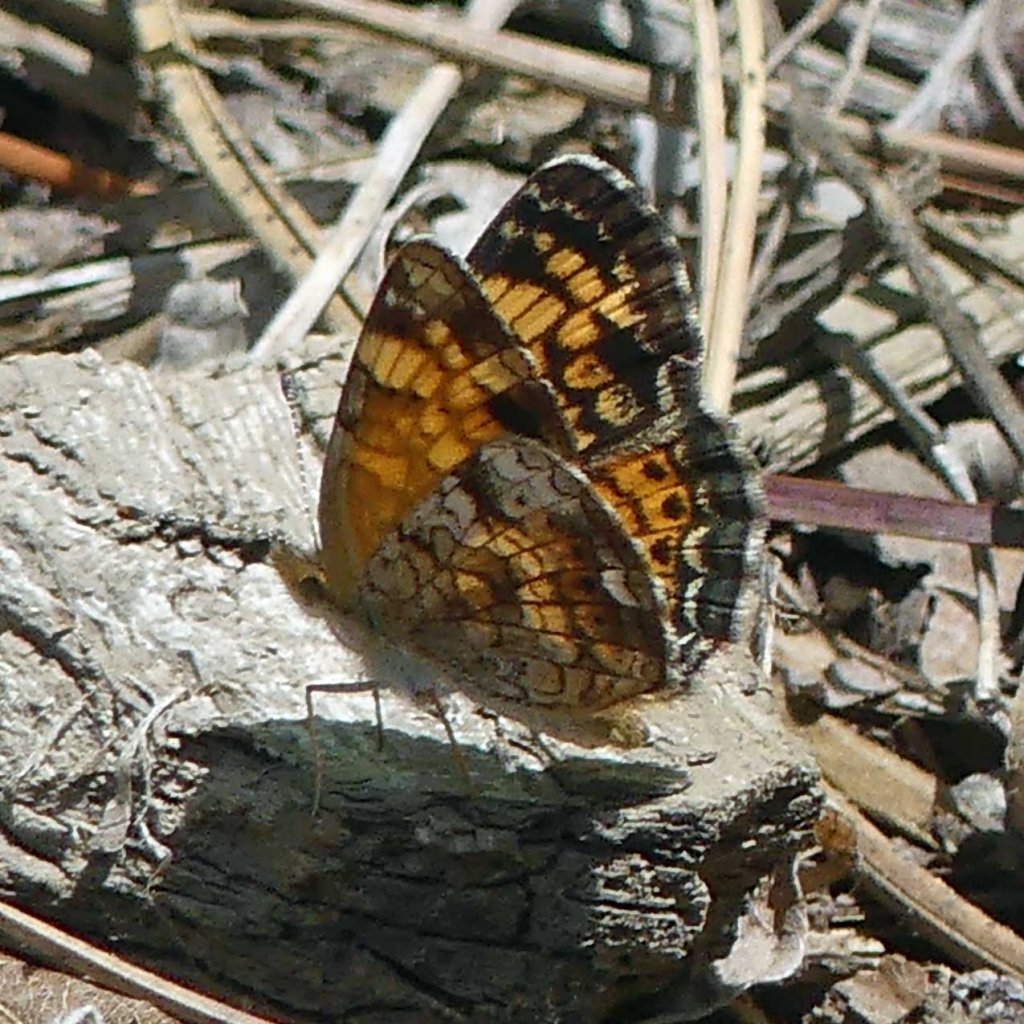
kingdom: Animalia
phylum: Arthropoda
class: Insecta
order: Lepidoptera
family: Nymphalidae
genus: Phyciodes
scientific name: Phyciodes tharos
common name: Pearl Crescent
